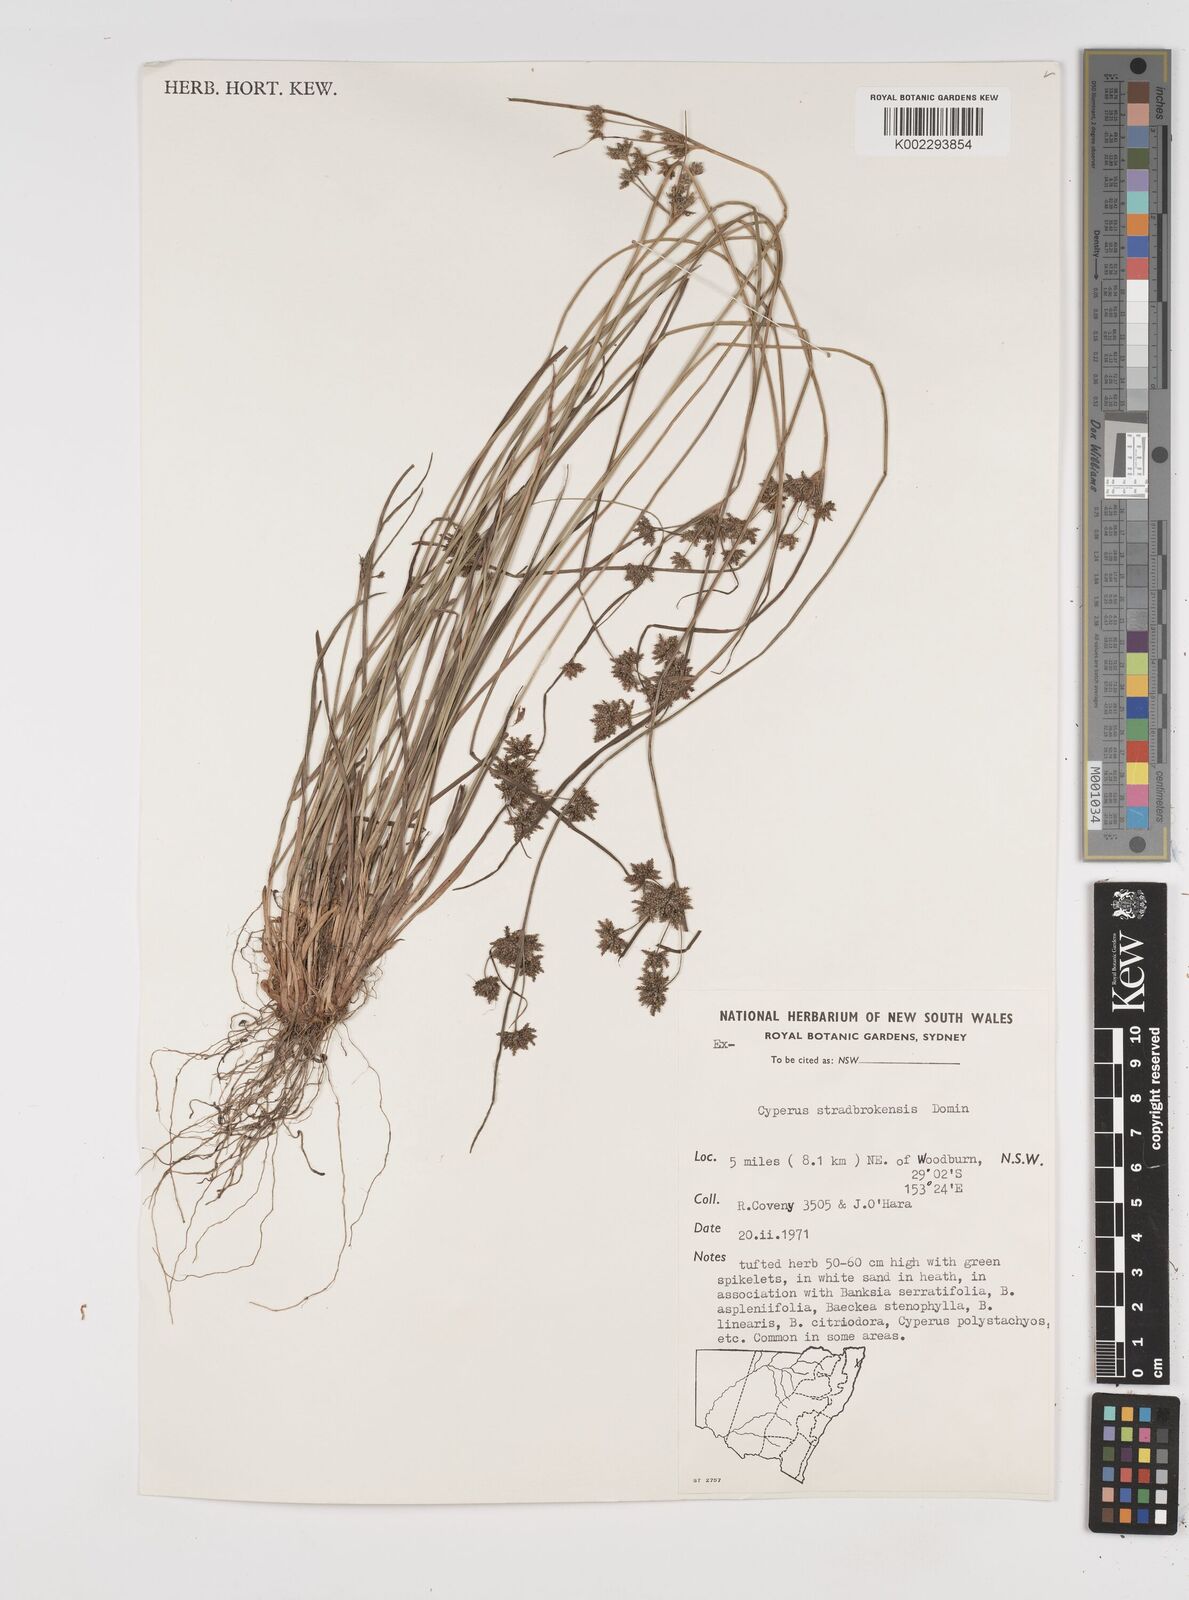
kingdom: Plantae
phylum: Tracheophyta
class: Liliopsida
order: Poales
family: Cyperaceae
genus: Cyperus
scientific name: Cyperus stradbrokensis
